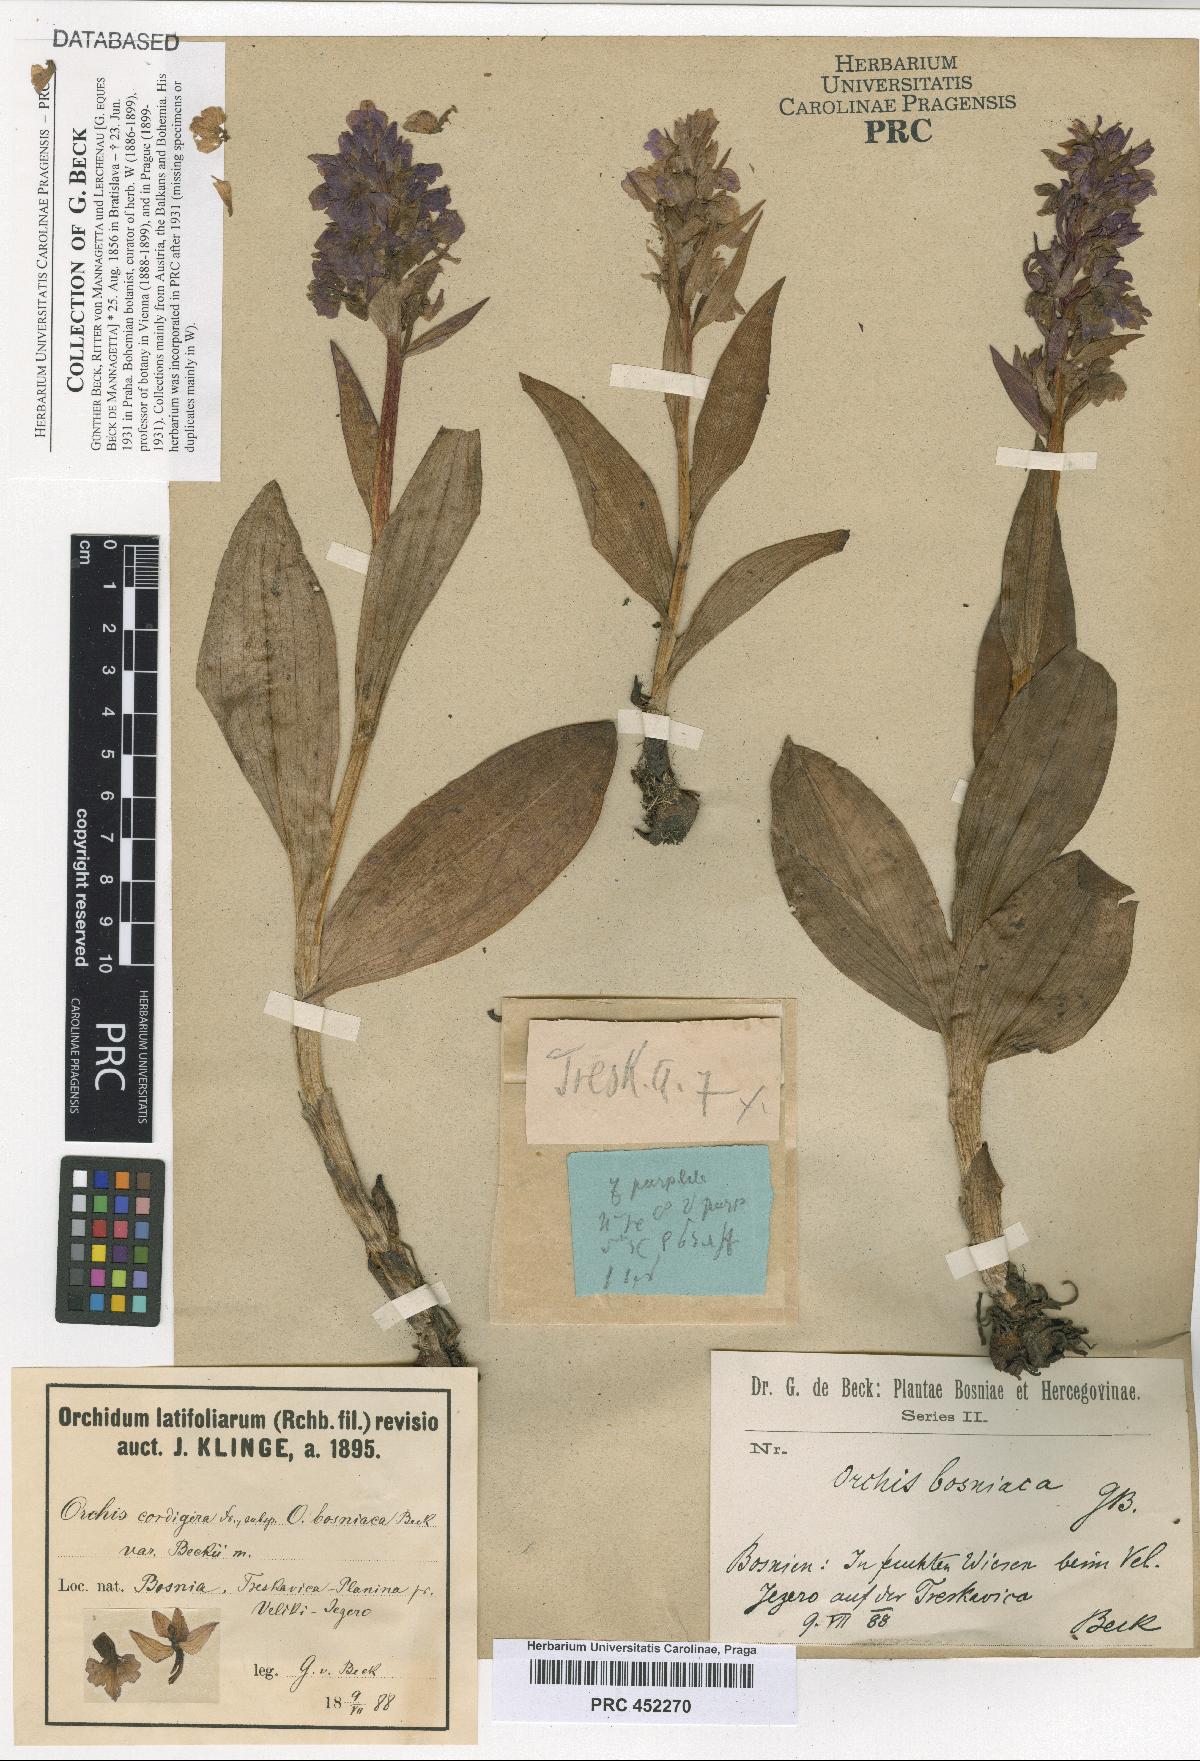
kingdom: Plantae
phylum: Tracheophyta
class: Liliopsida
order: Asparagales
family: Orchidaceae
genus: Dactylorhiza
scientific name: Dactylorhiza majalis
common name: Marsh orchid
